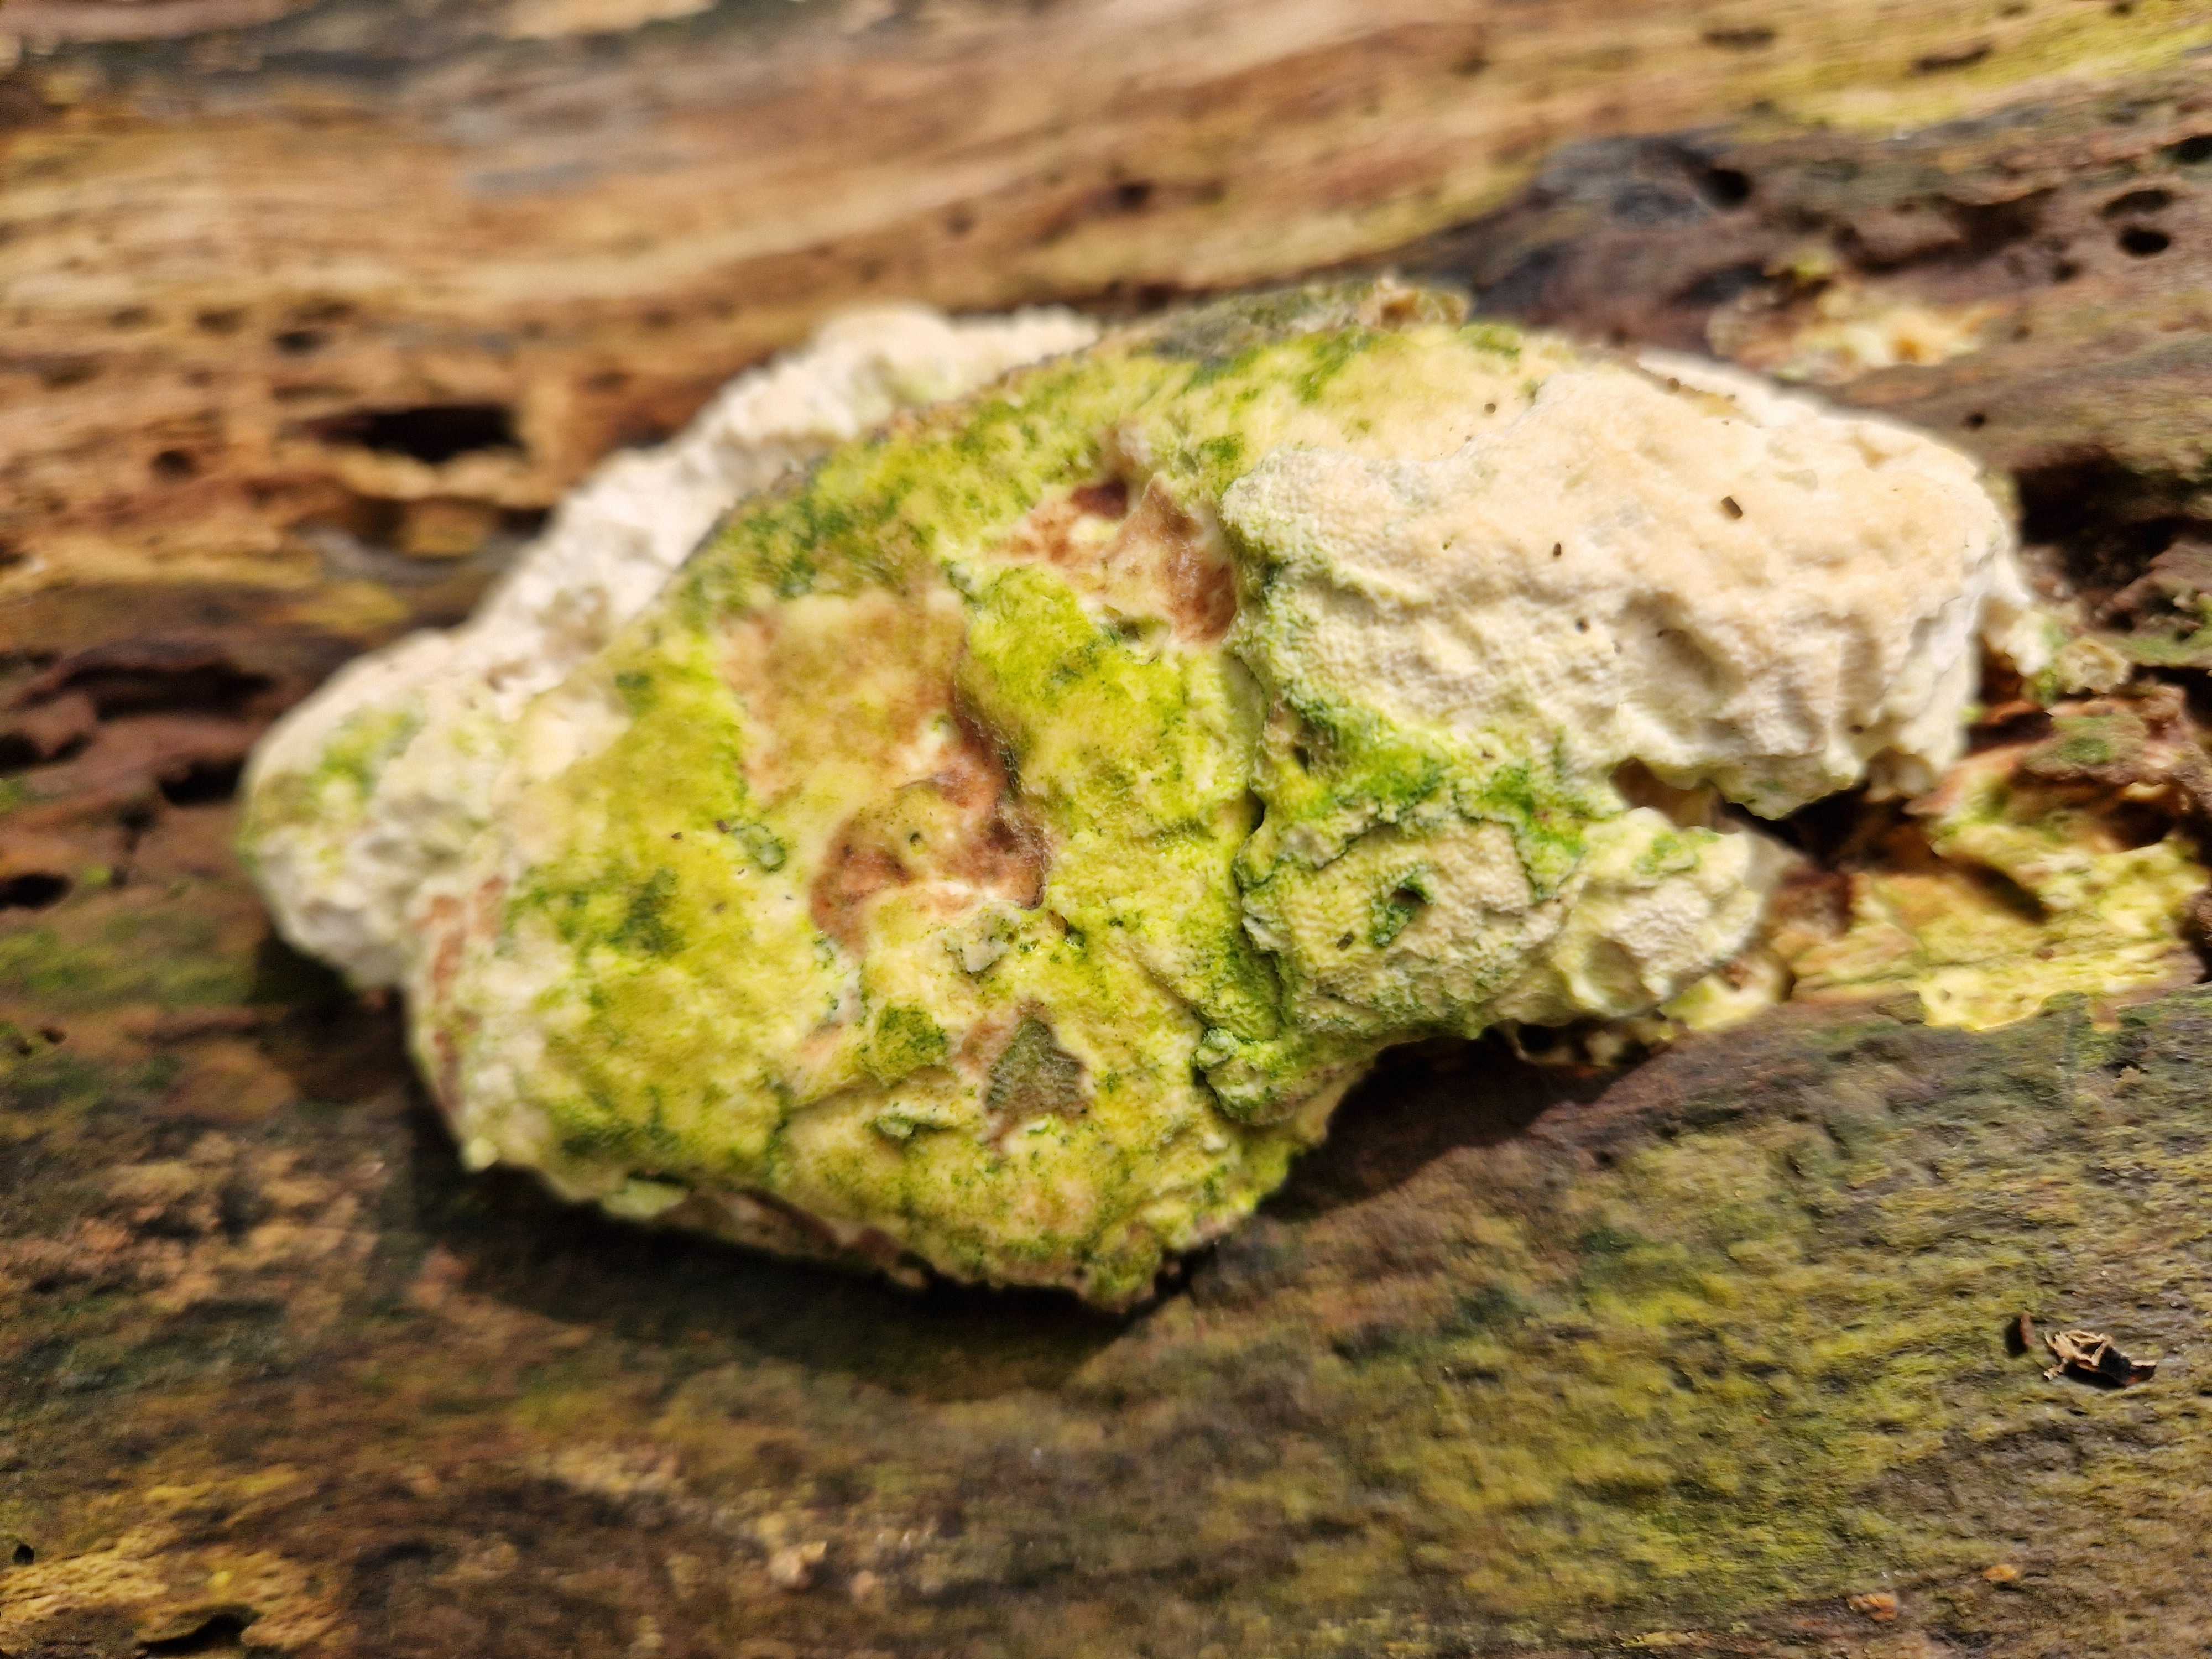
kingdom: Fungi
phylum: Basidiomycota
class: Agaricomycetes
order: Polyporales
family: Polyporaceae
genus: Trametes
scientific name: Trametes gibbosa
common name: puklet læderporesvamp
